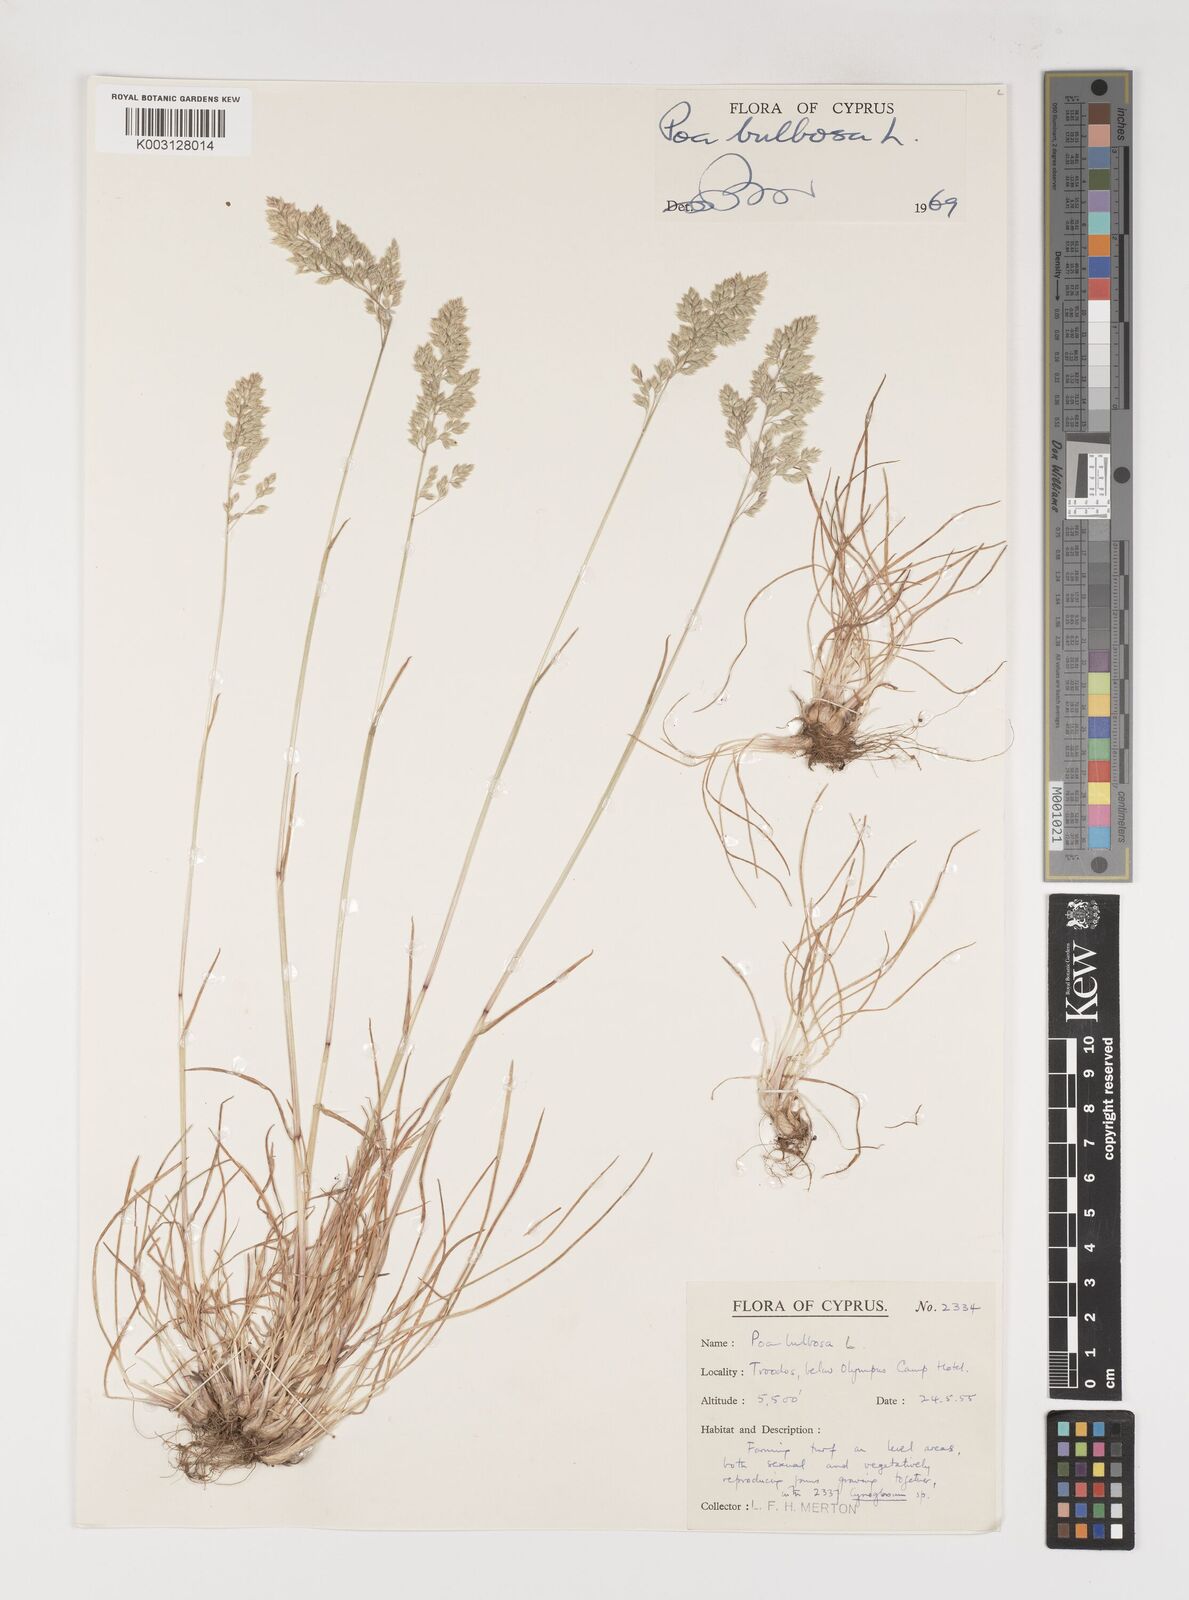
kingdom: Plantae
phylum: Tracheophyta
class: Liliopsida
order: Poales
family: Poaceae
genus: Poa
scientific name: Poa bulbosa
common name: Bulbous bluegrass
